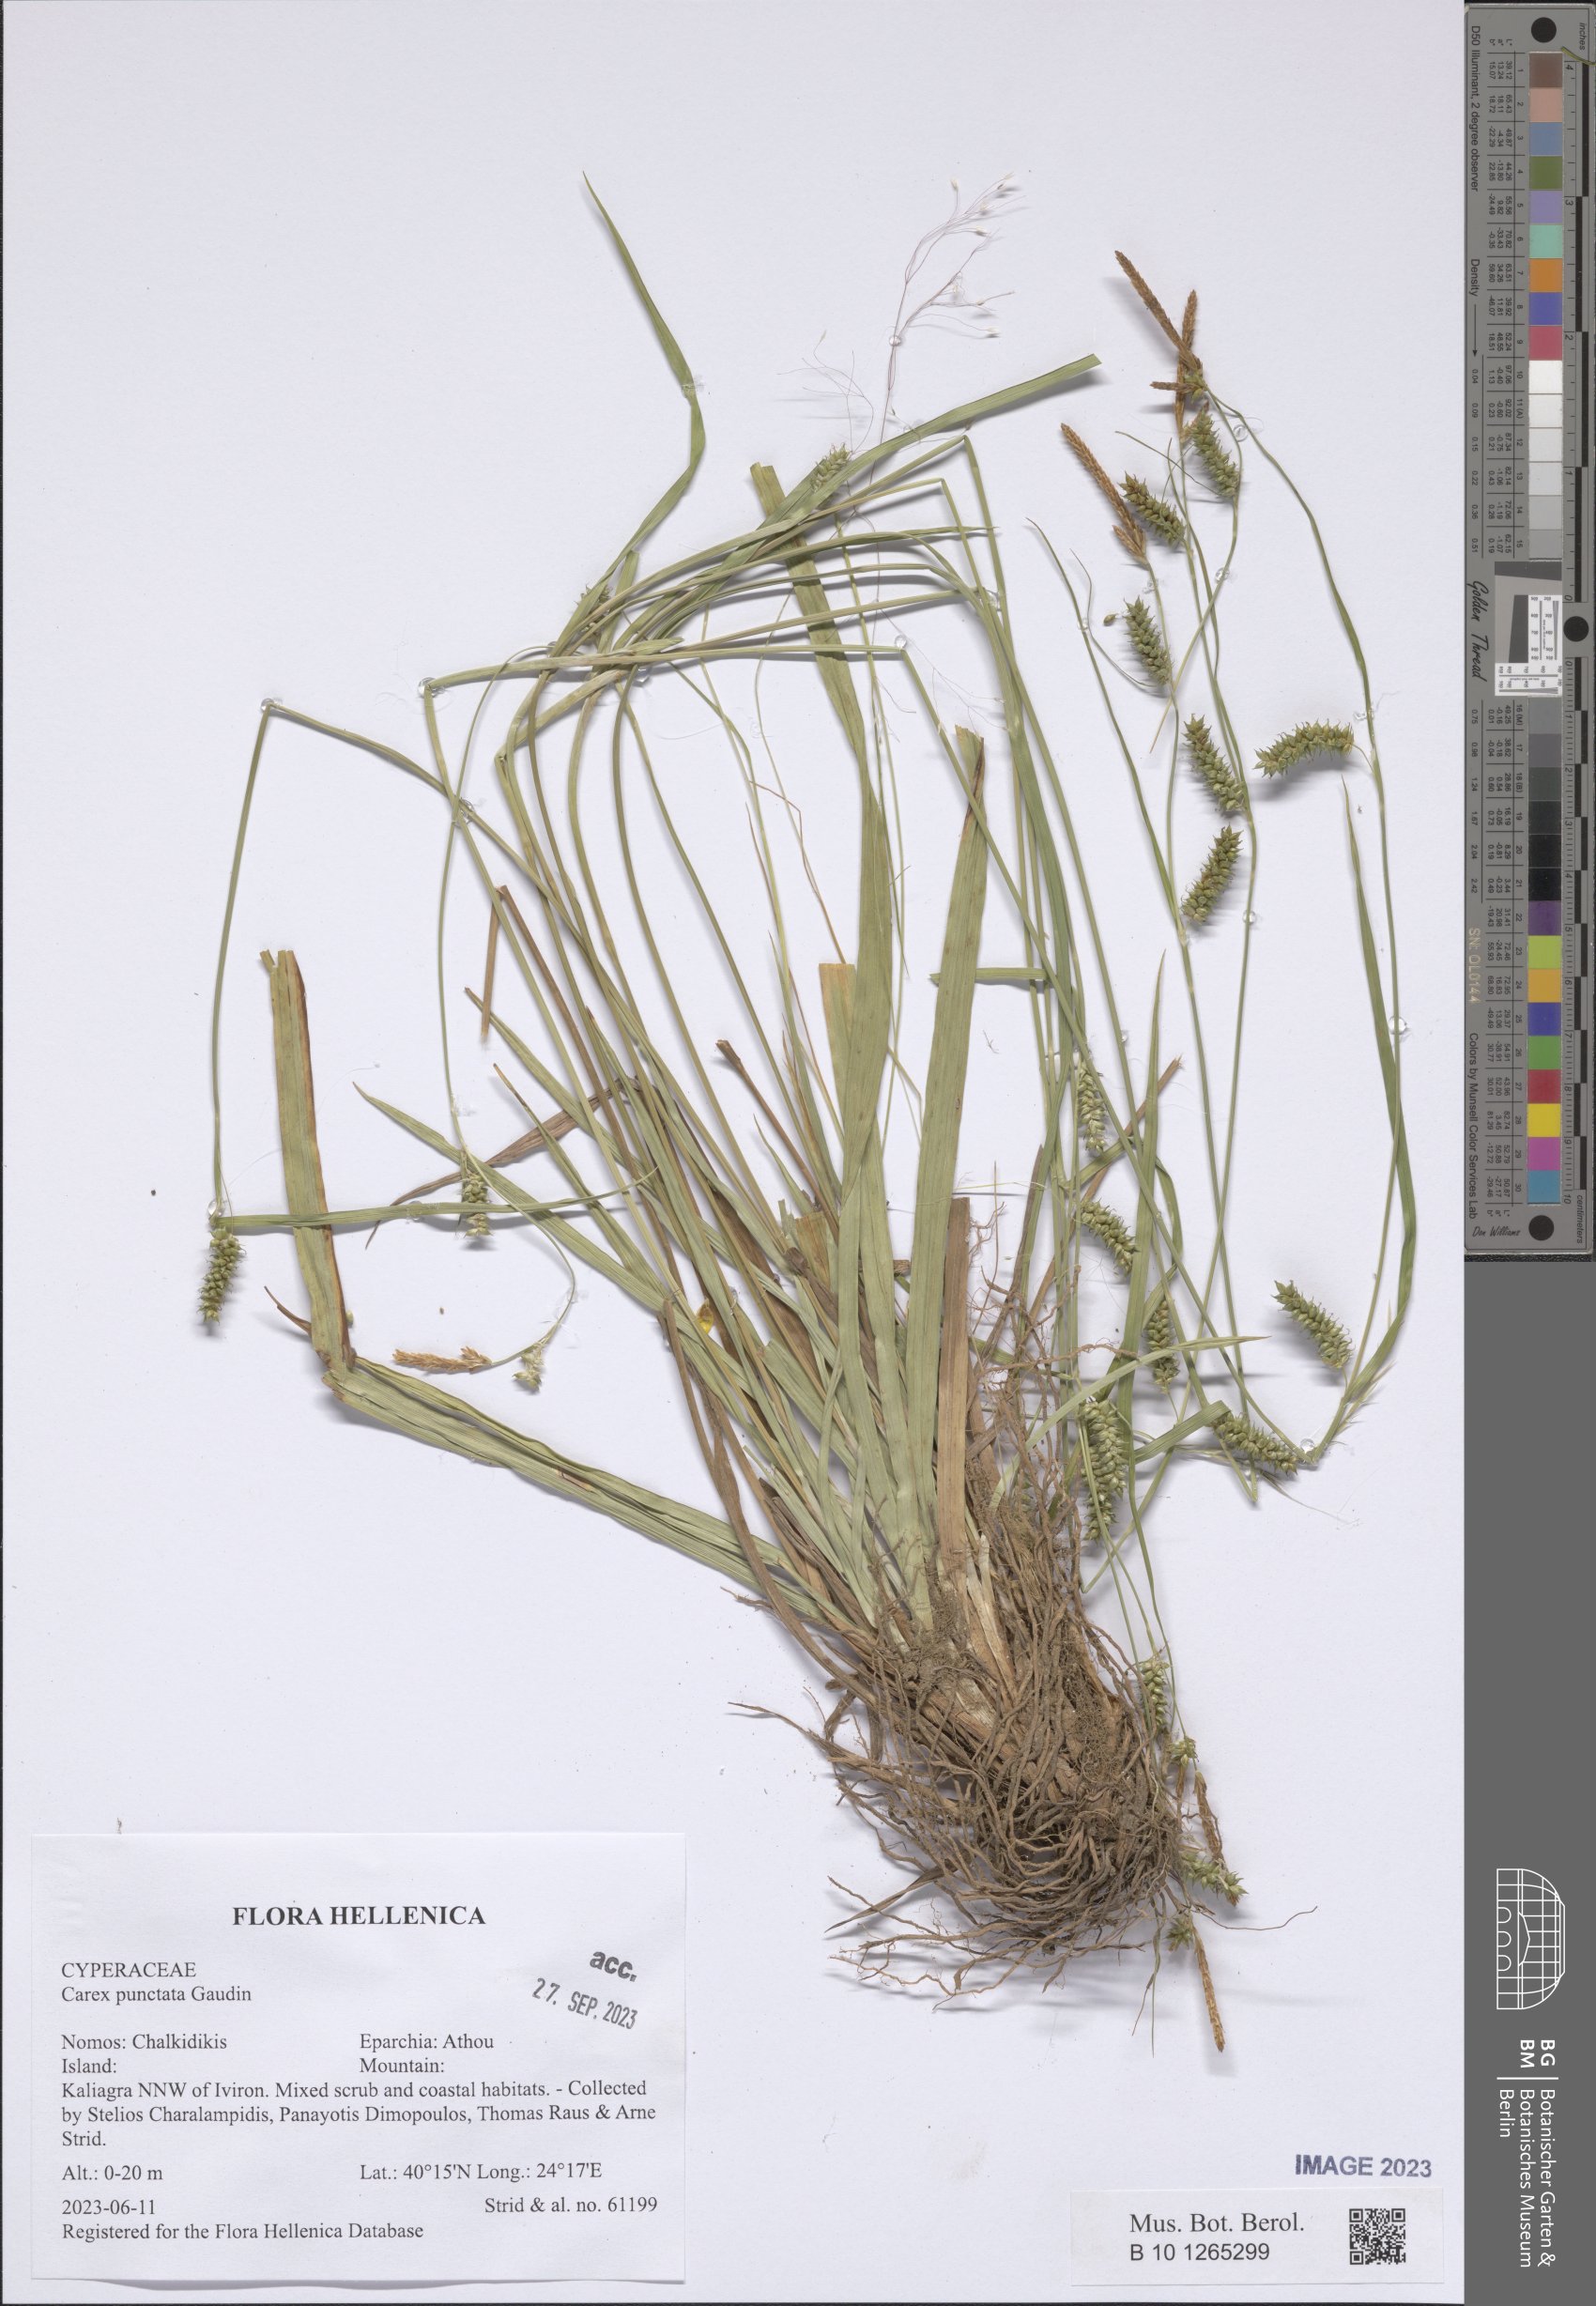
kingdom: Plantae
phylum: Tracheophyta
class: Liliopsida
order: Poales
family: Cyperaceae
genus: Carex
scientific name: Carex punctata
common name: Dotted sedge
